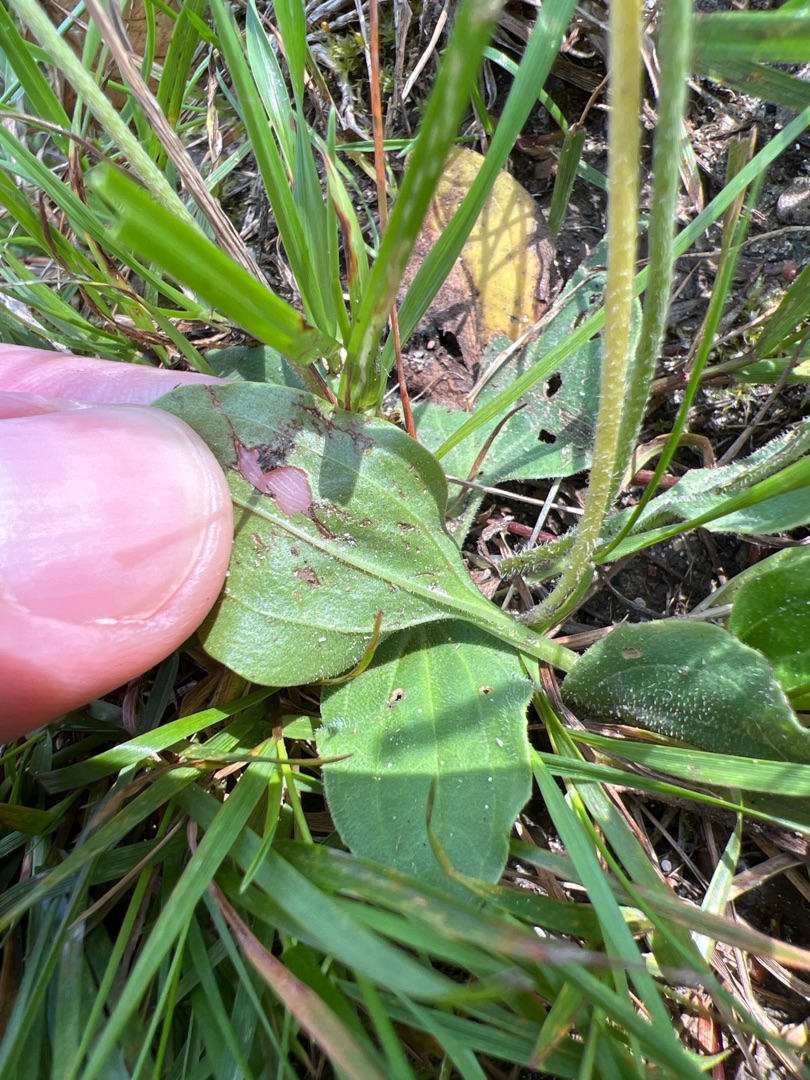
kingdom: Plantae
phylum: Tracheophyta
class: Magnoliopsida
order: Lamiales
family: Plantaginaceae
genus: Plantago
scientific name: Plantago uliginosa
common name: Eng-vejbred
